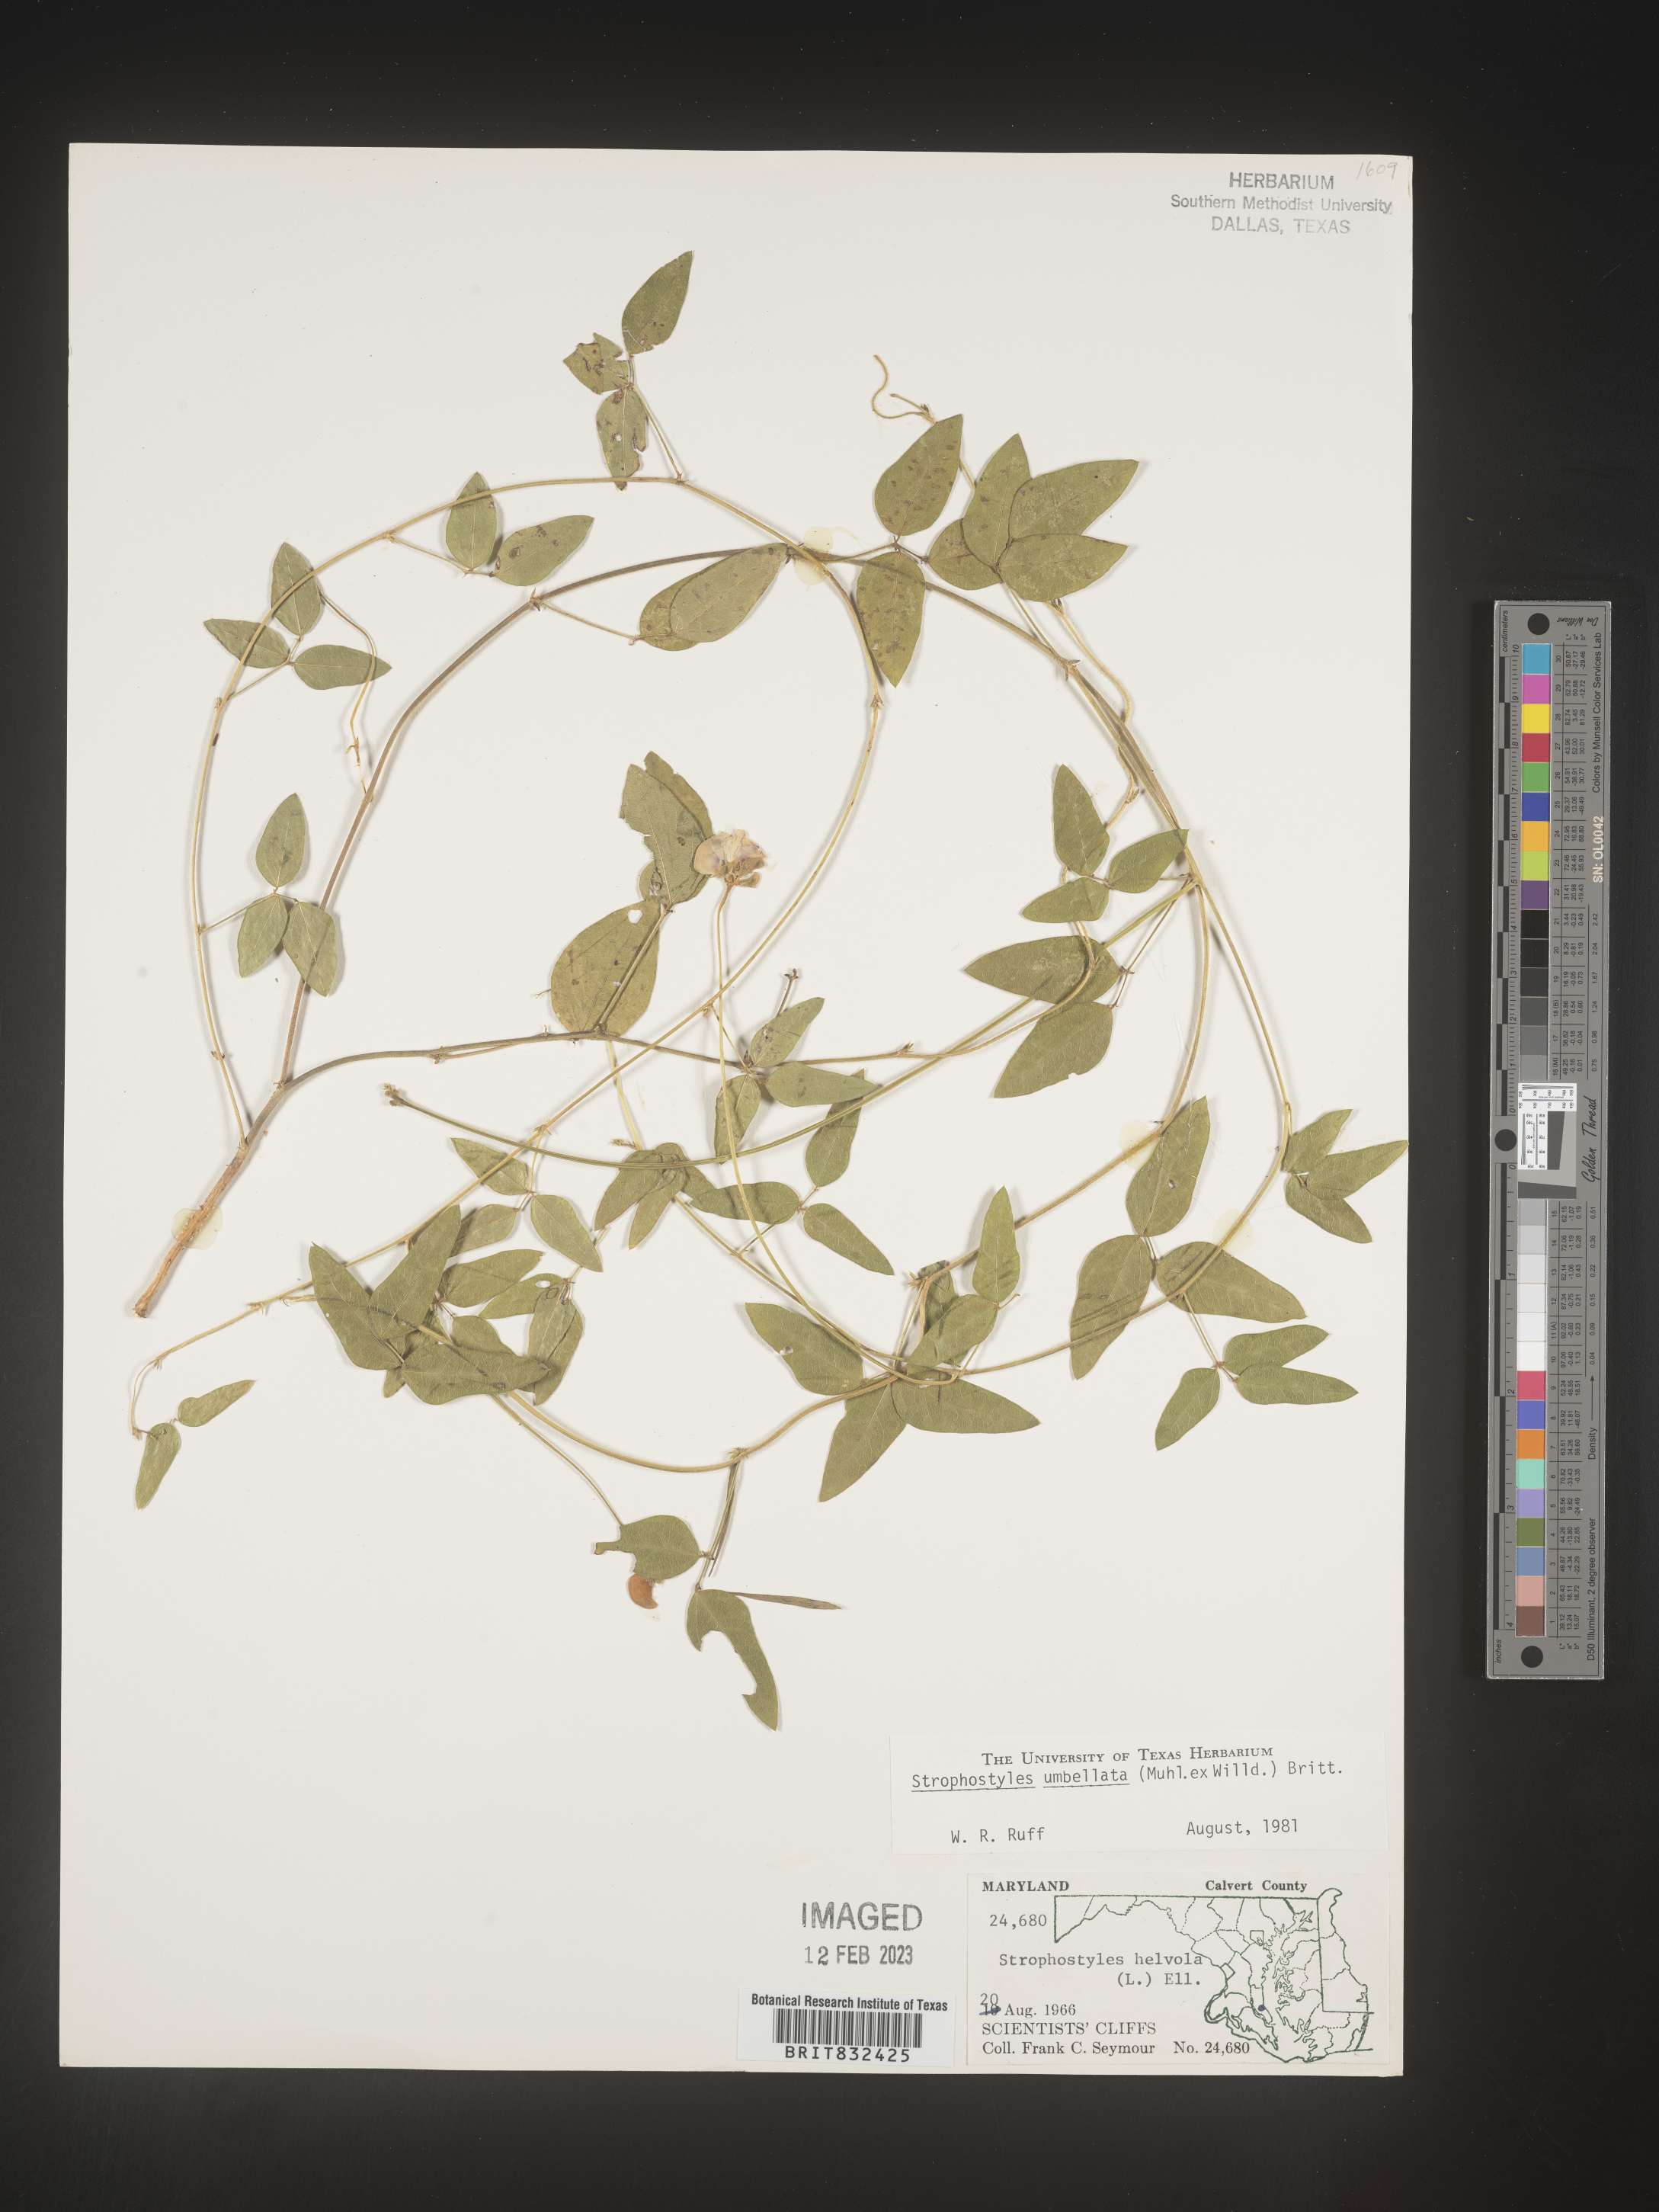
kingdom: Plantae
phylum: Tracheophyta
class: Magnoliopsida
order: Fabales
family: Fabaceae
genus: Strophostyles
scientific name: Strophostyles umbellata
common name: Perennial wild bean
